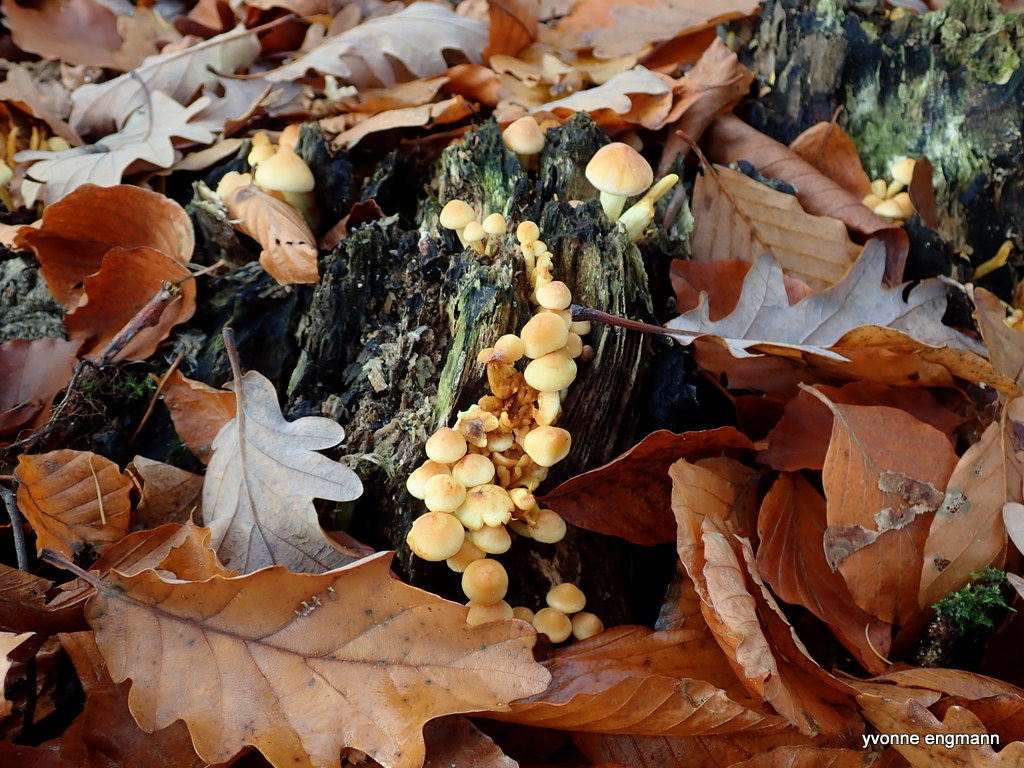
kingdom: Fungi
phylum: Basidiomycota
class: Agaricomycetes
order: Agaricales
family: Strophariaceae
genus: Hypholoma
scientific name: Hypholoma fasciculare
